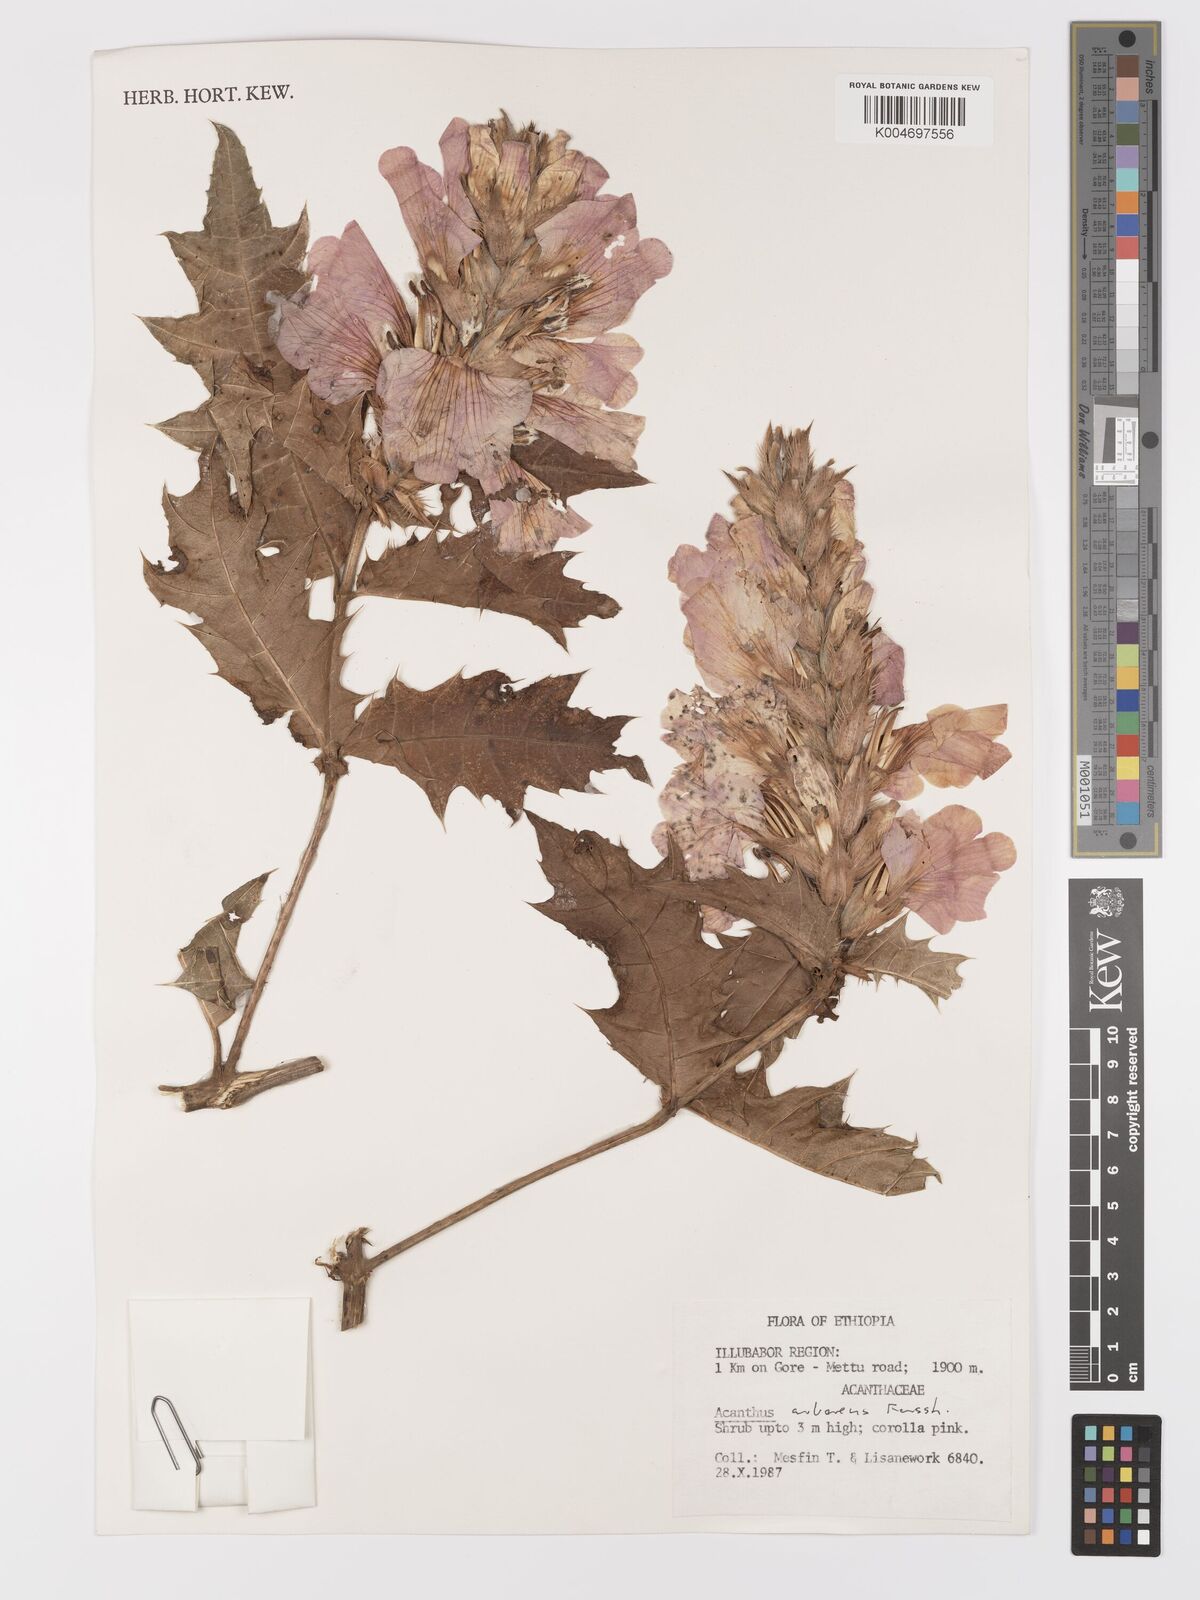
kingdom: Plantae
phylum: Tracheophyta
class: Magnoliopsida
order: Lamiales
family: Acanthaceae
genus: Acanthus
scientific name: Acanthus polystachyus
